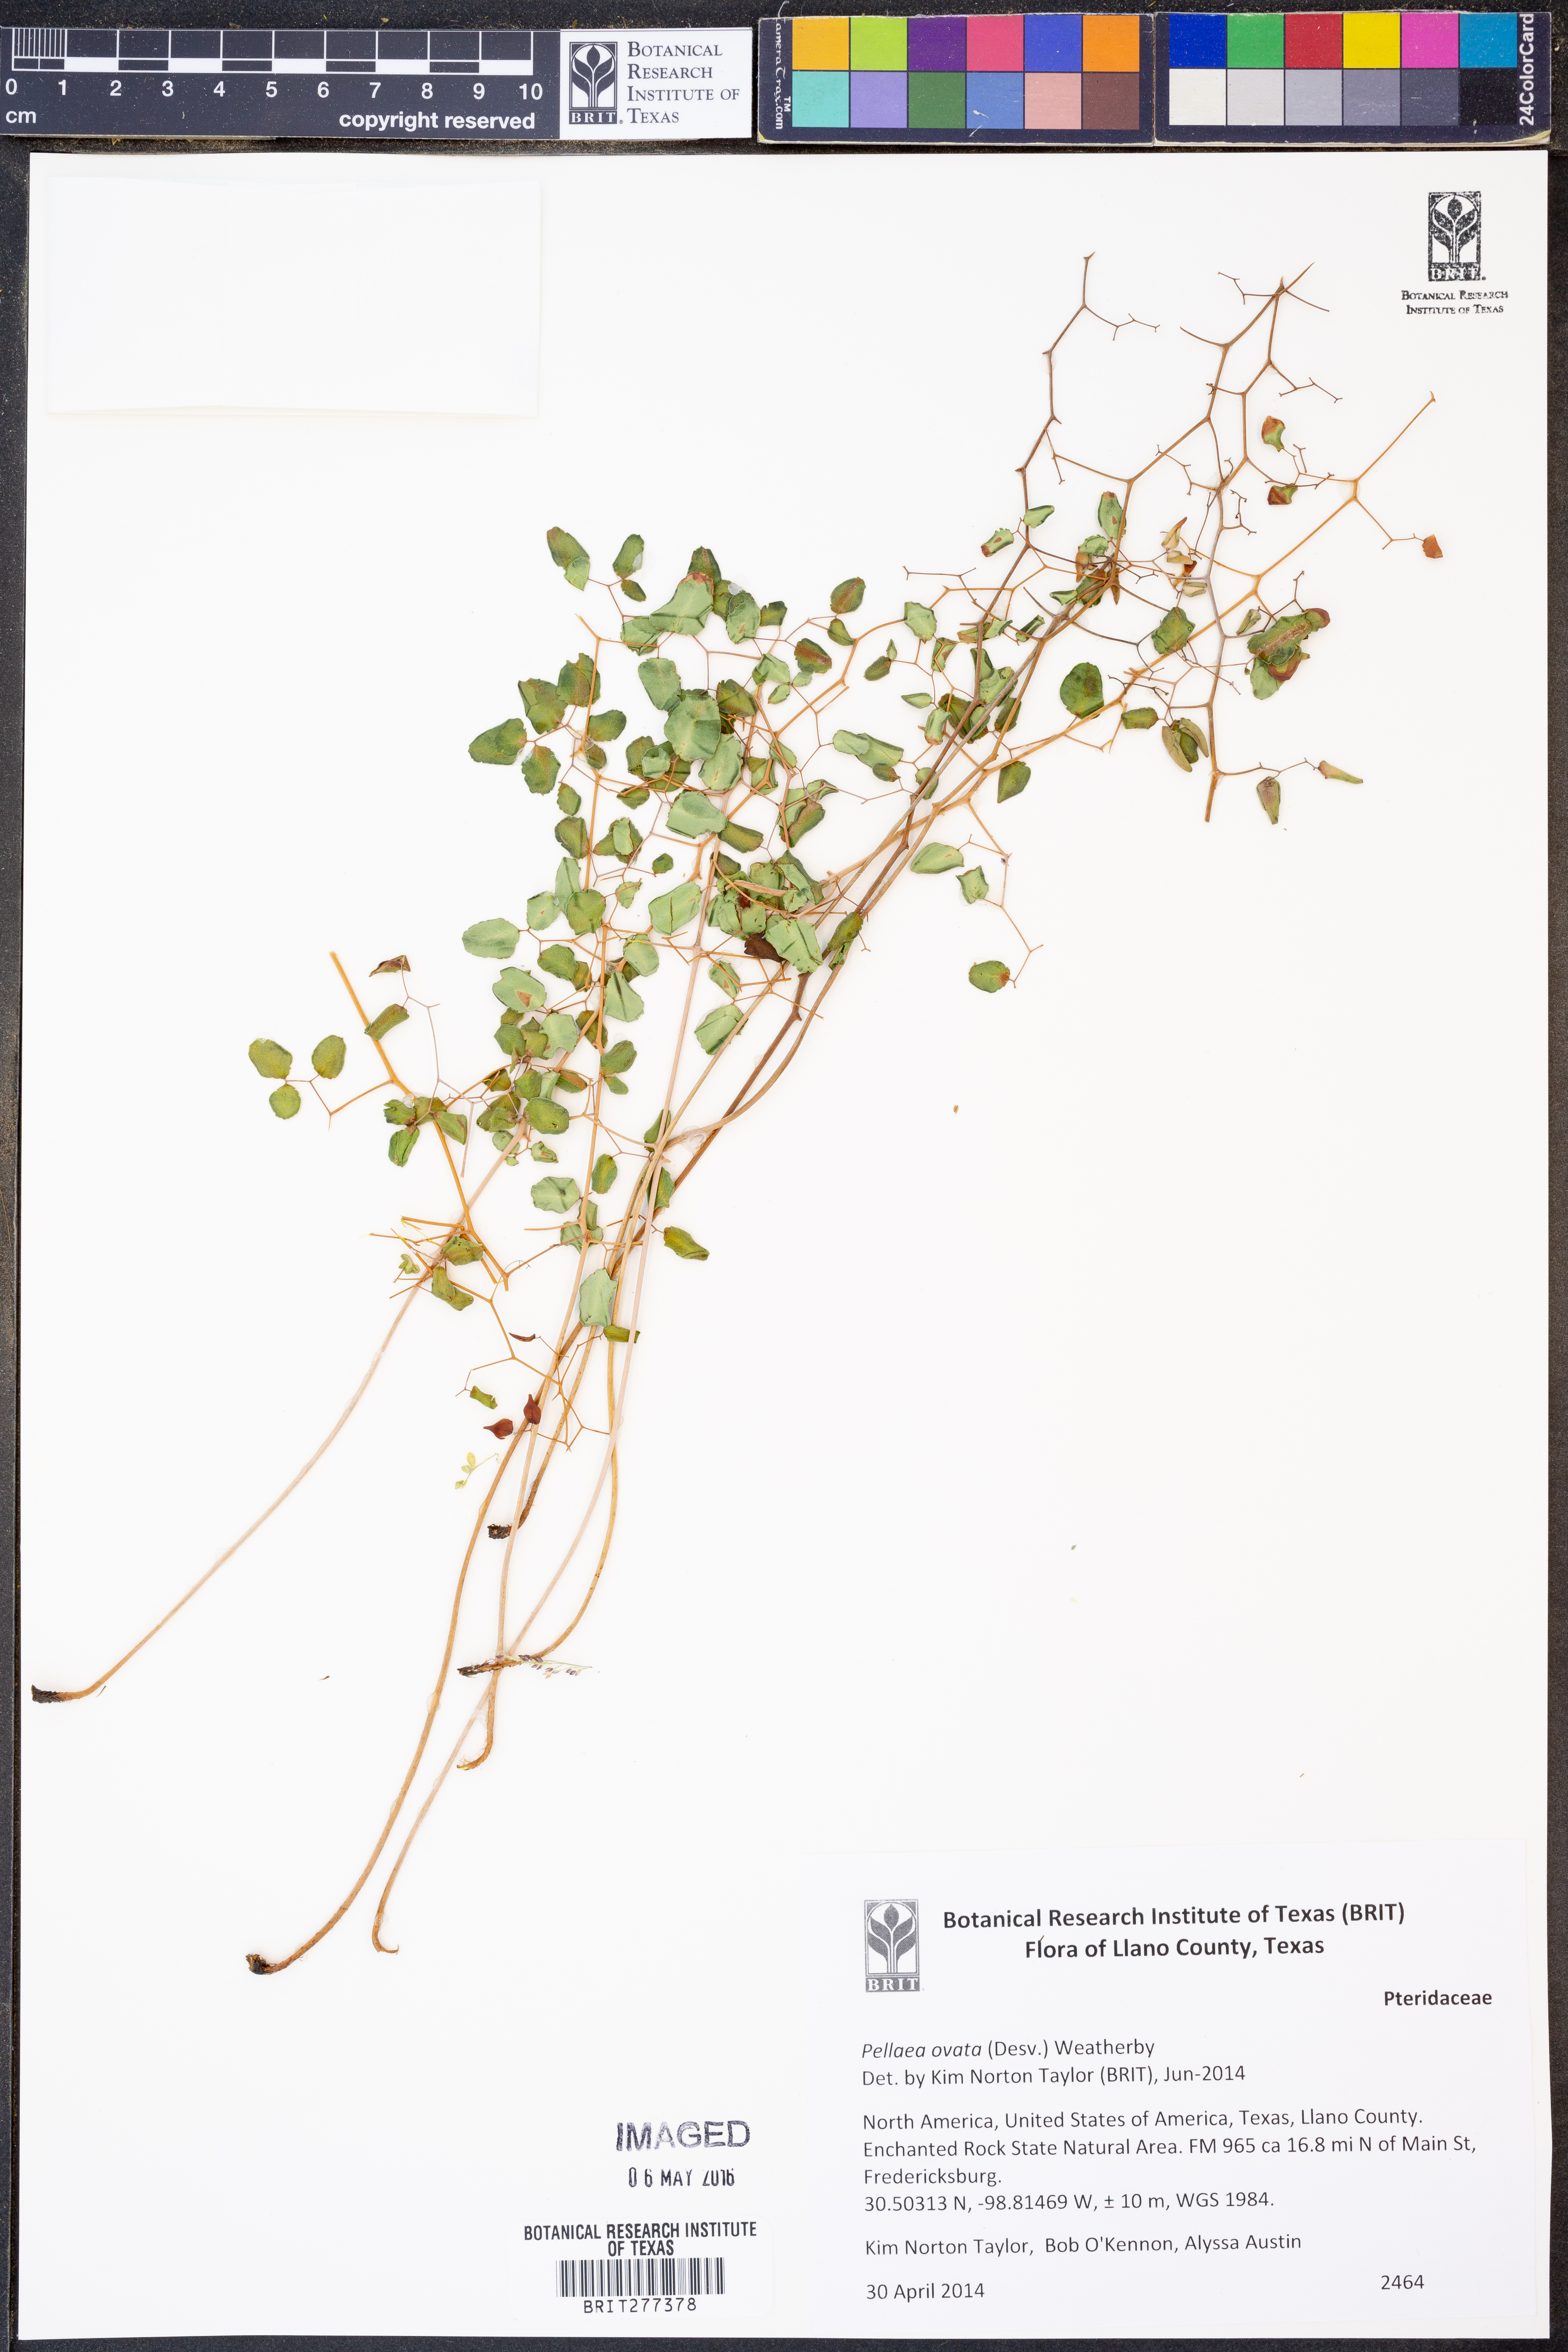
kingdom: Plantae
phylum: Tracheophyta
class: Polypodiopsida
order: Polypodiales
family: Pteridaceae
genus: Pellaea
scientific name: Pellaea ovata
